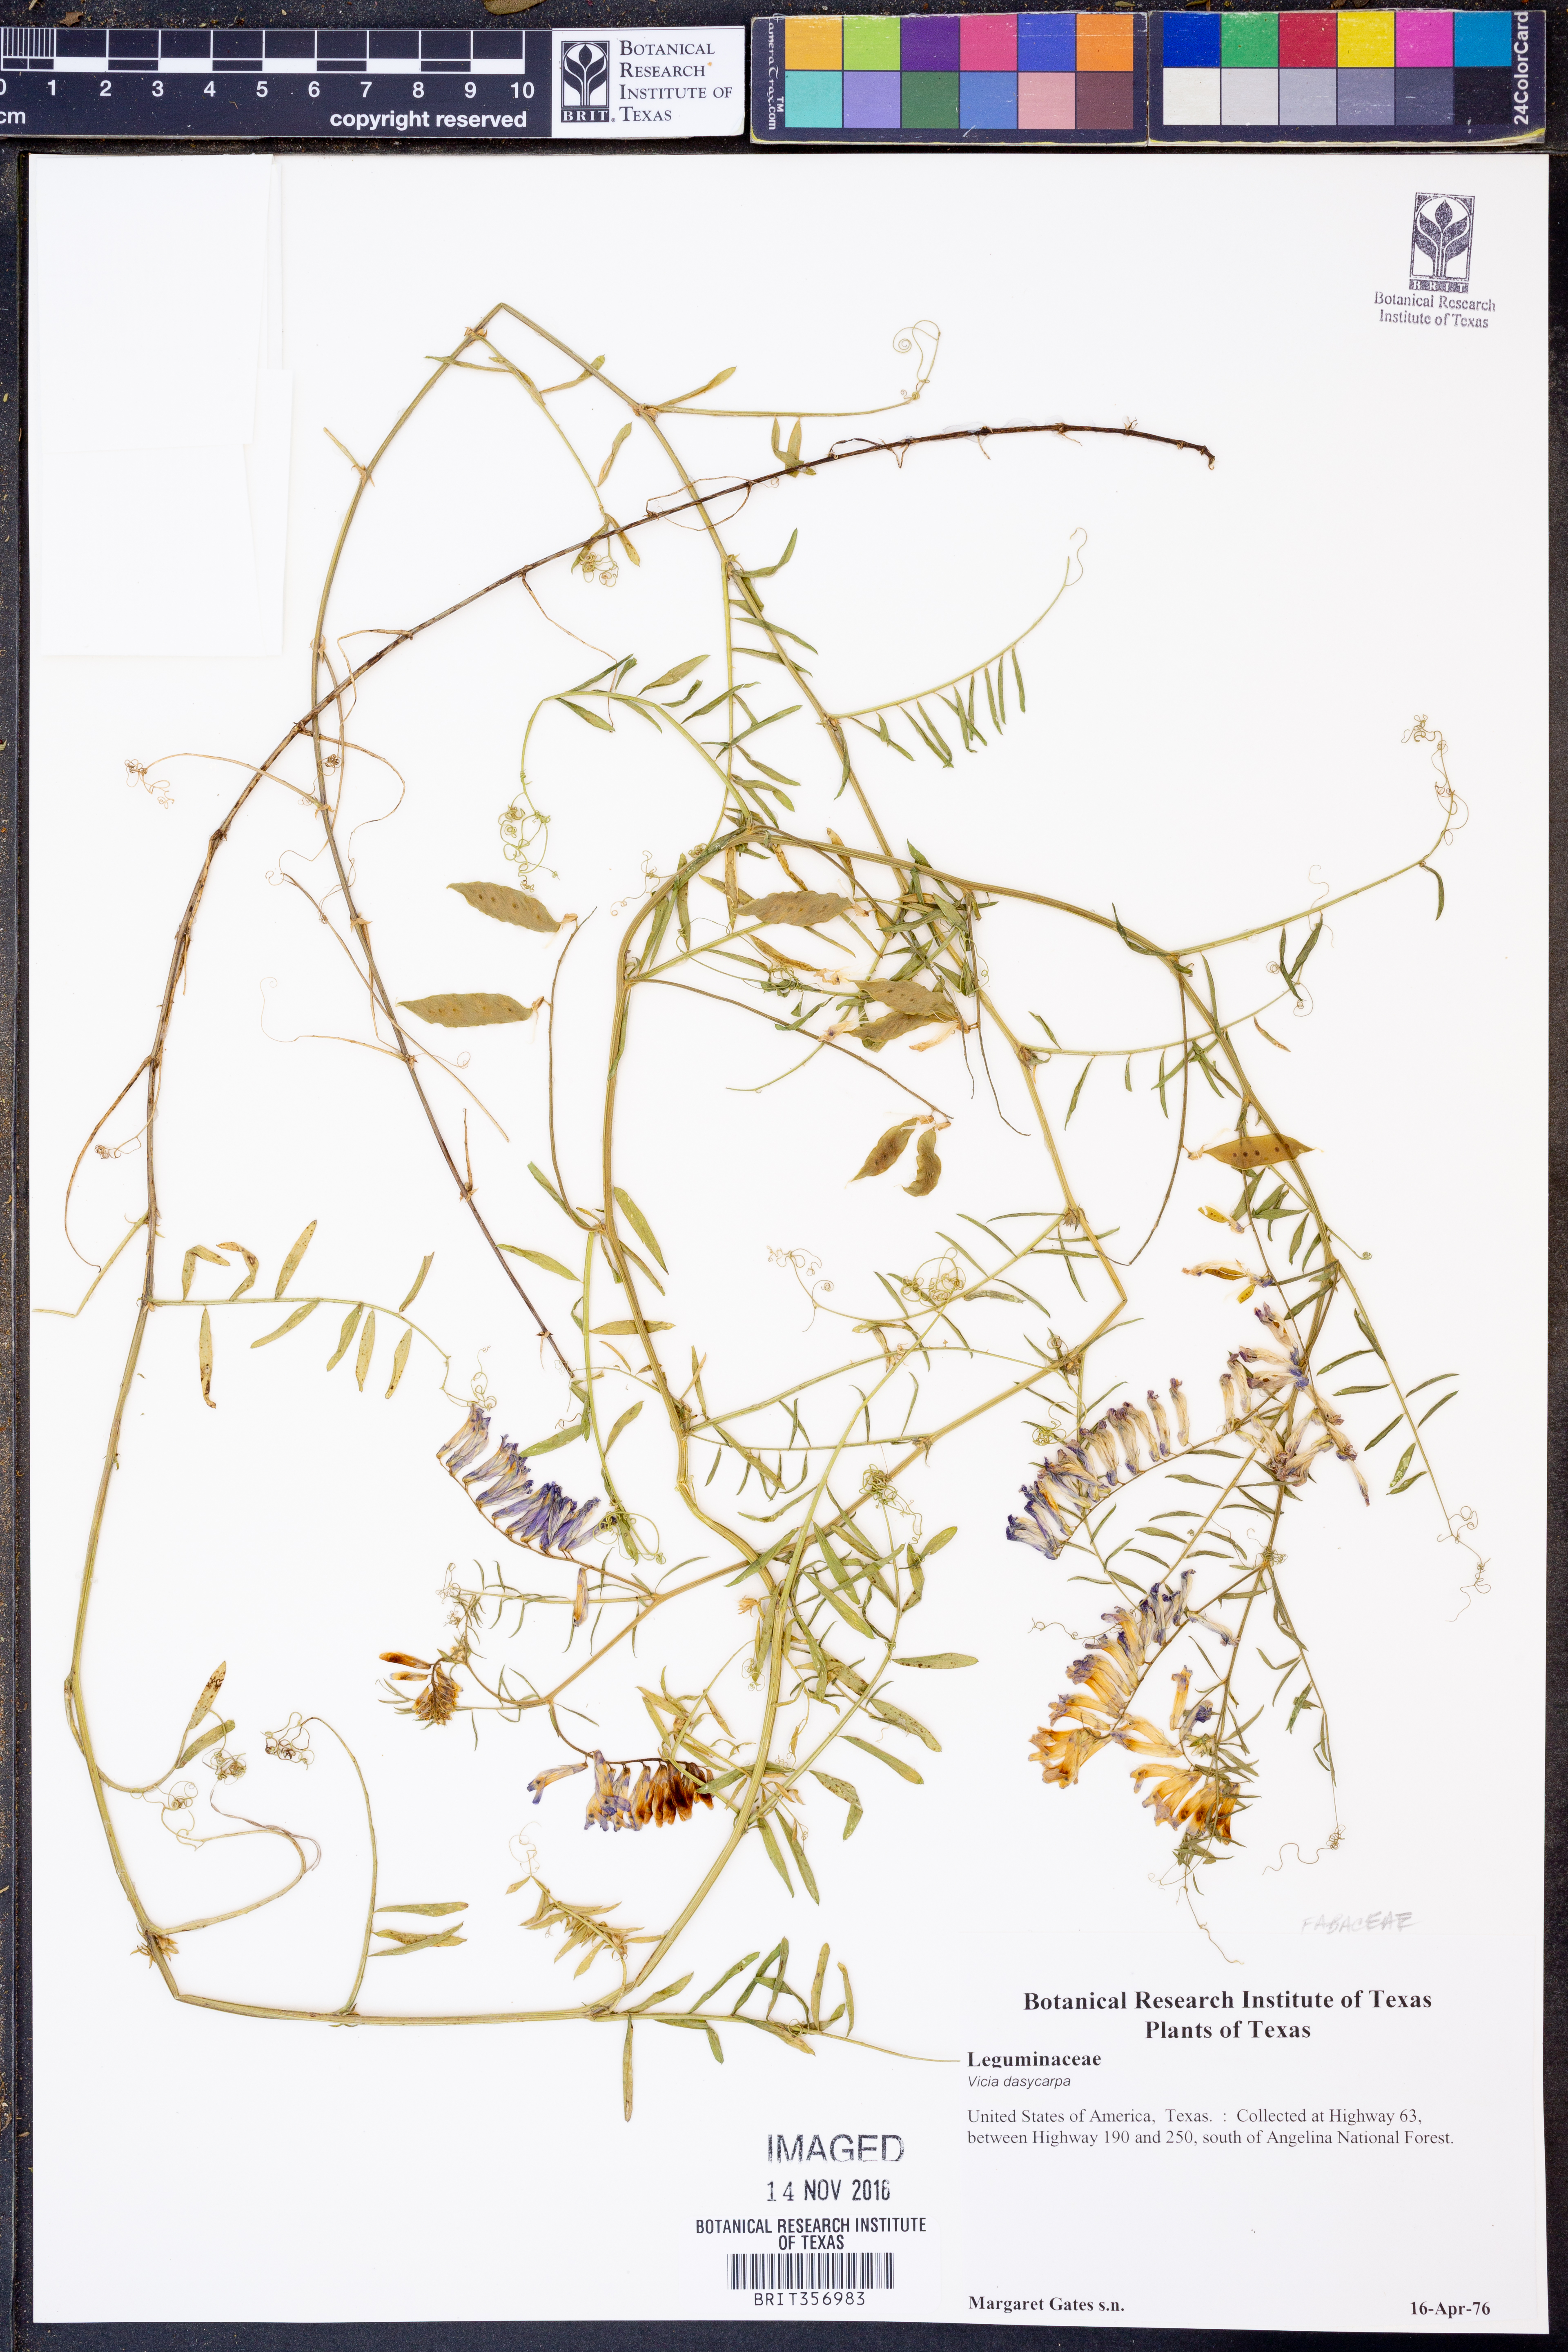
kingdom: Plantae
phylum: Tracheophyta
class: Magnoliopsida
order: Fabales
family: Fabaceae
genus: Vicia
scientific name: Vicia villosa
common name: Fodder vetch
